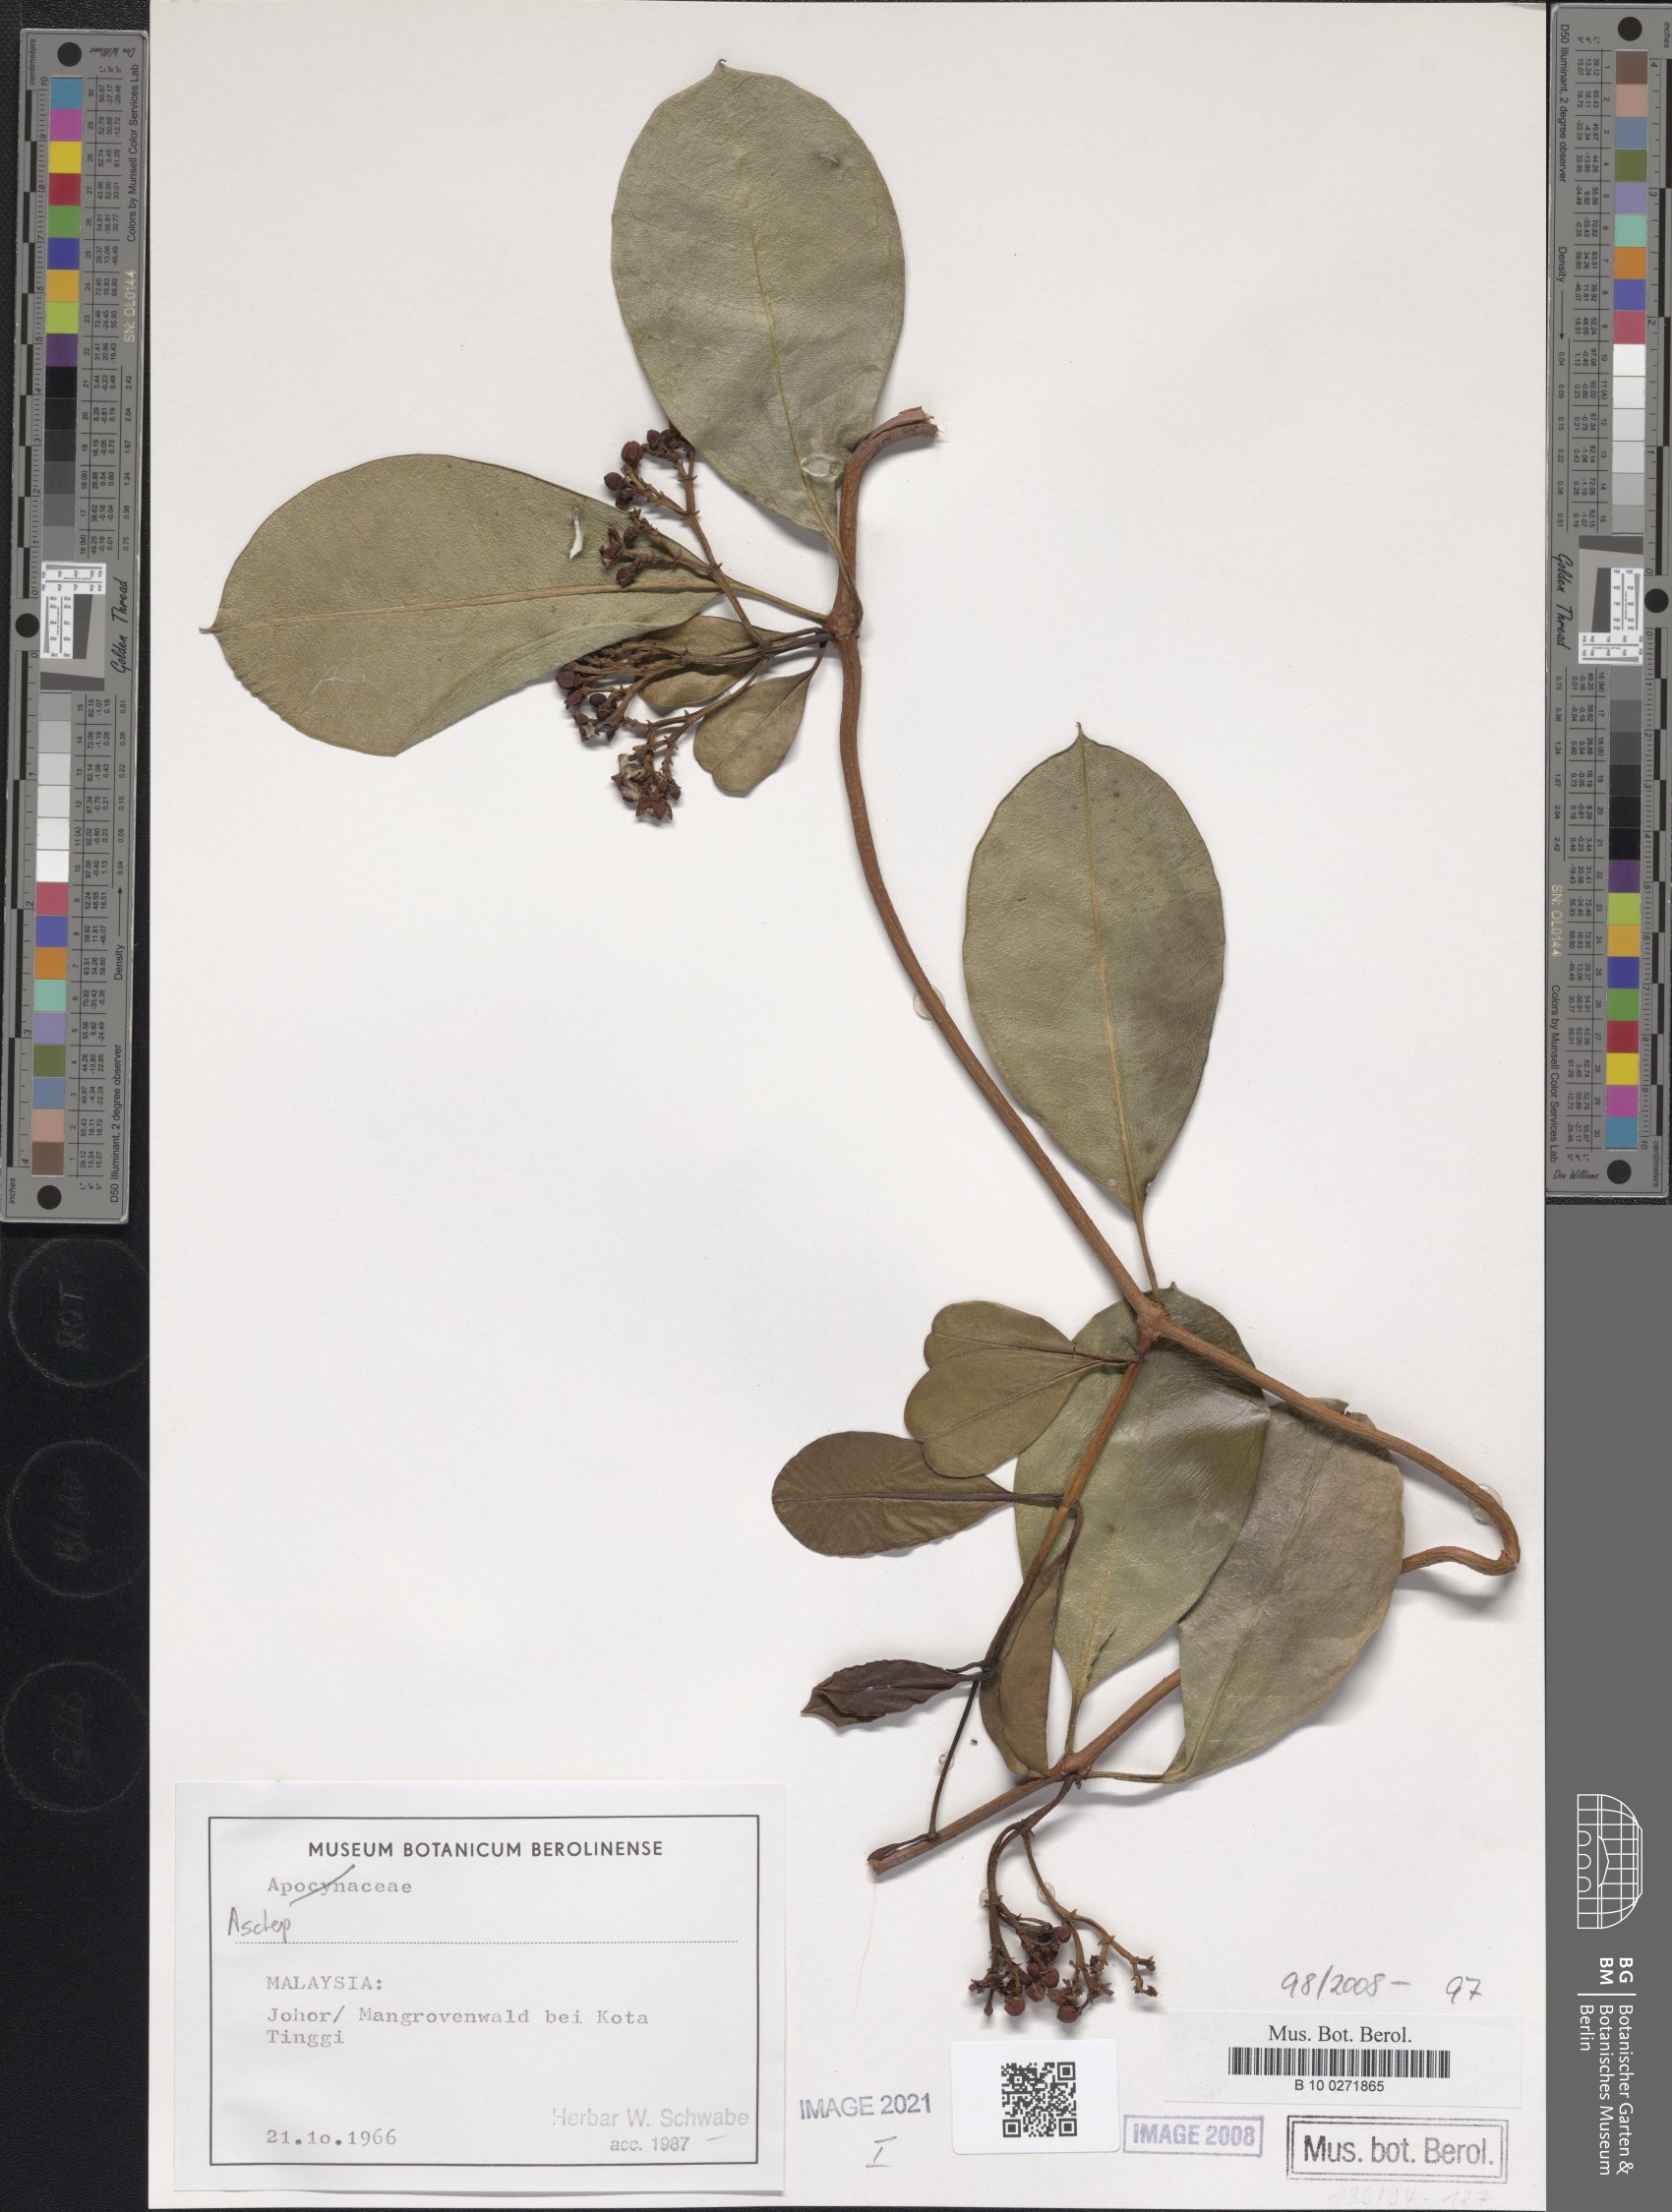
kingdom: Plantae
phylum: Tracheophyta
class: Magnoliopsida
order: Gentianales
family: Asclepiadaceae
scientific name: Asclepiadaceae
